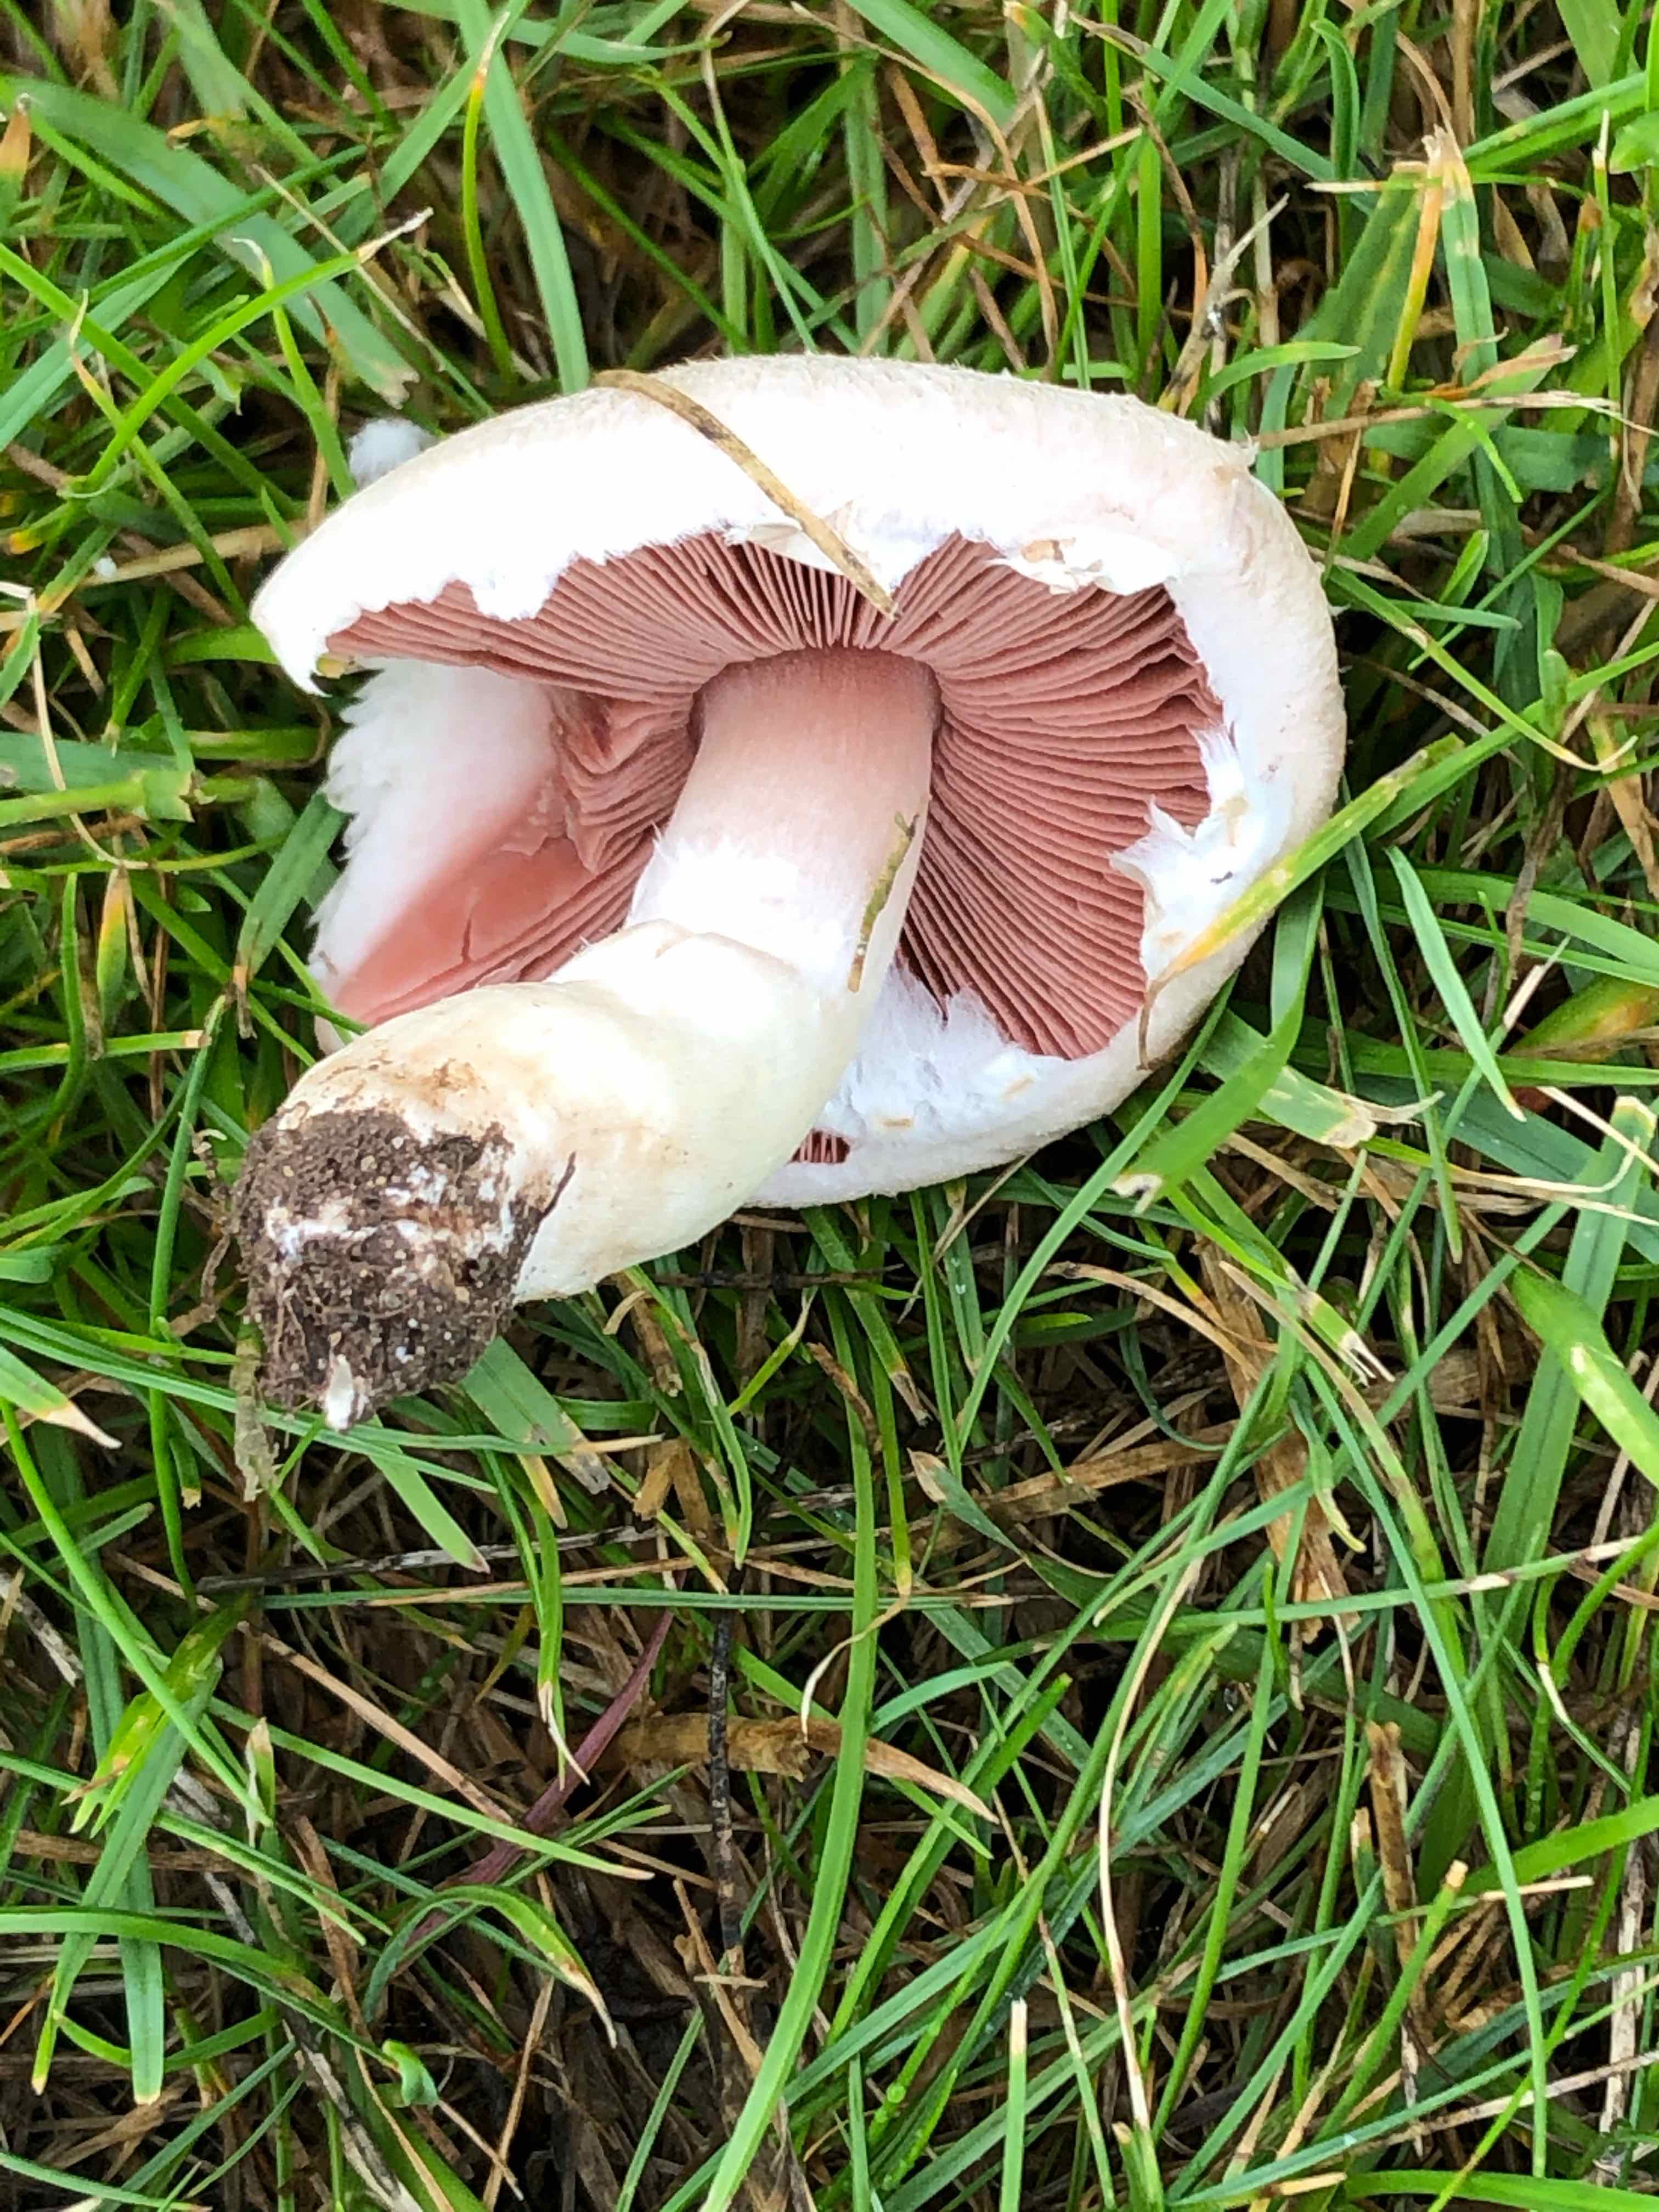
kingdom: Fungi
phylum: Basidiomycota
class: Agaricomycetes
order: Agaricales
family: Agaricaceae
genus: Agaricus
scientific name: Agaricus campestris
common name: mark-champignon
